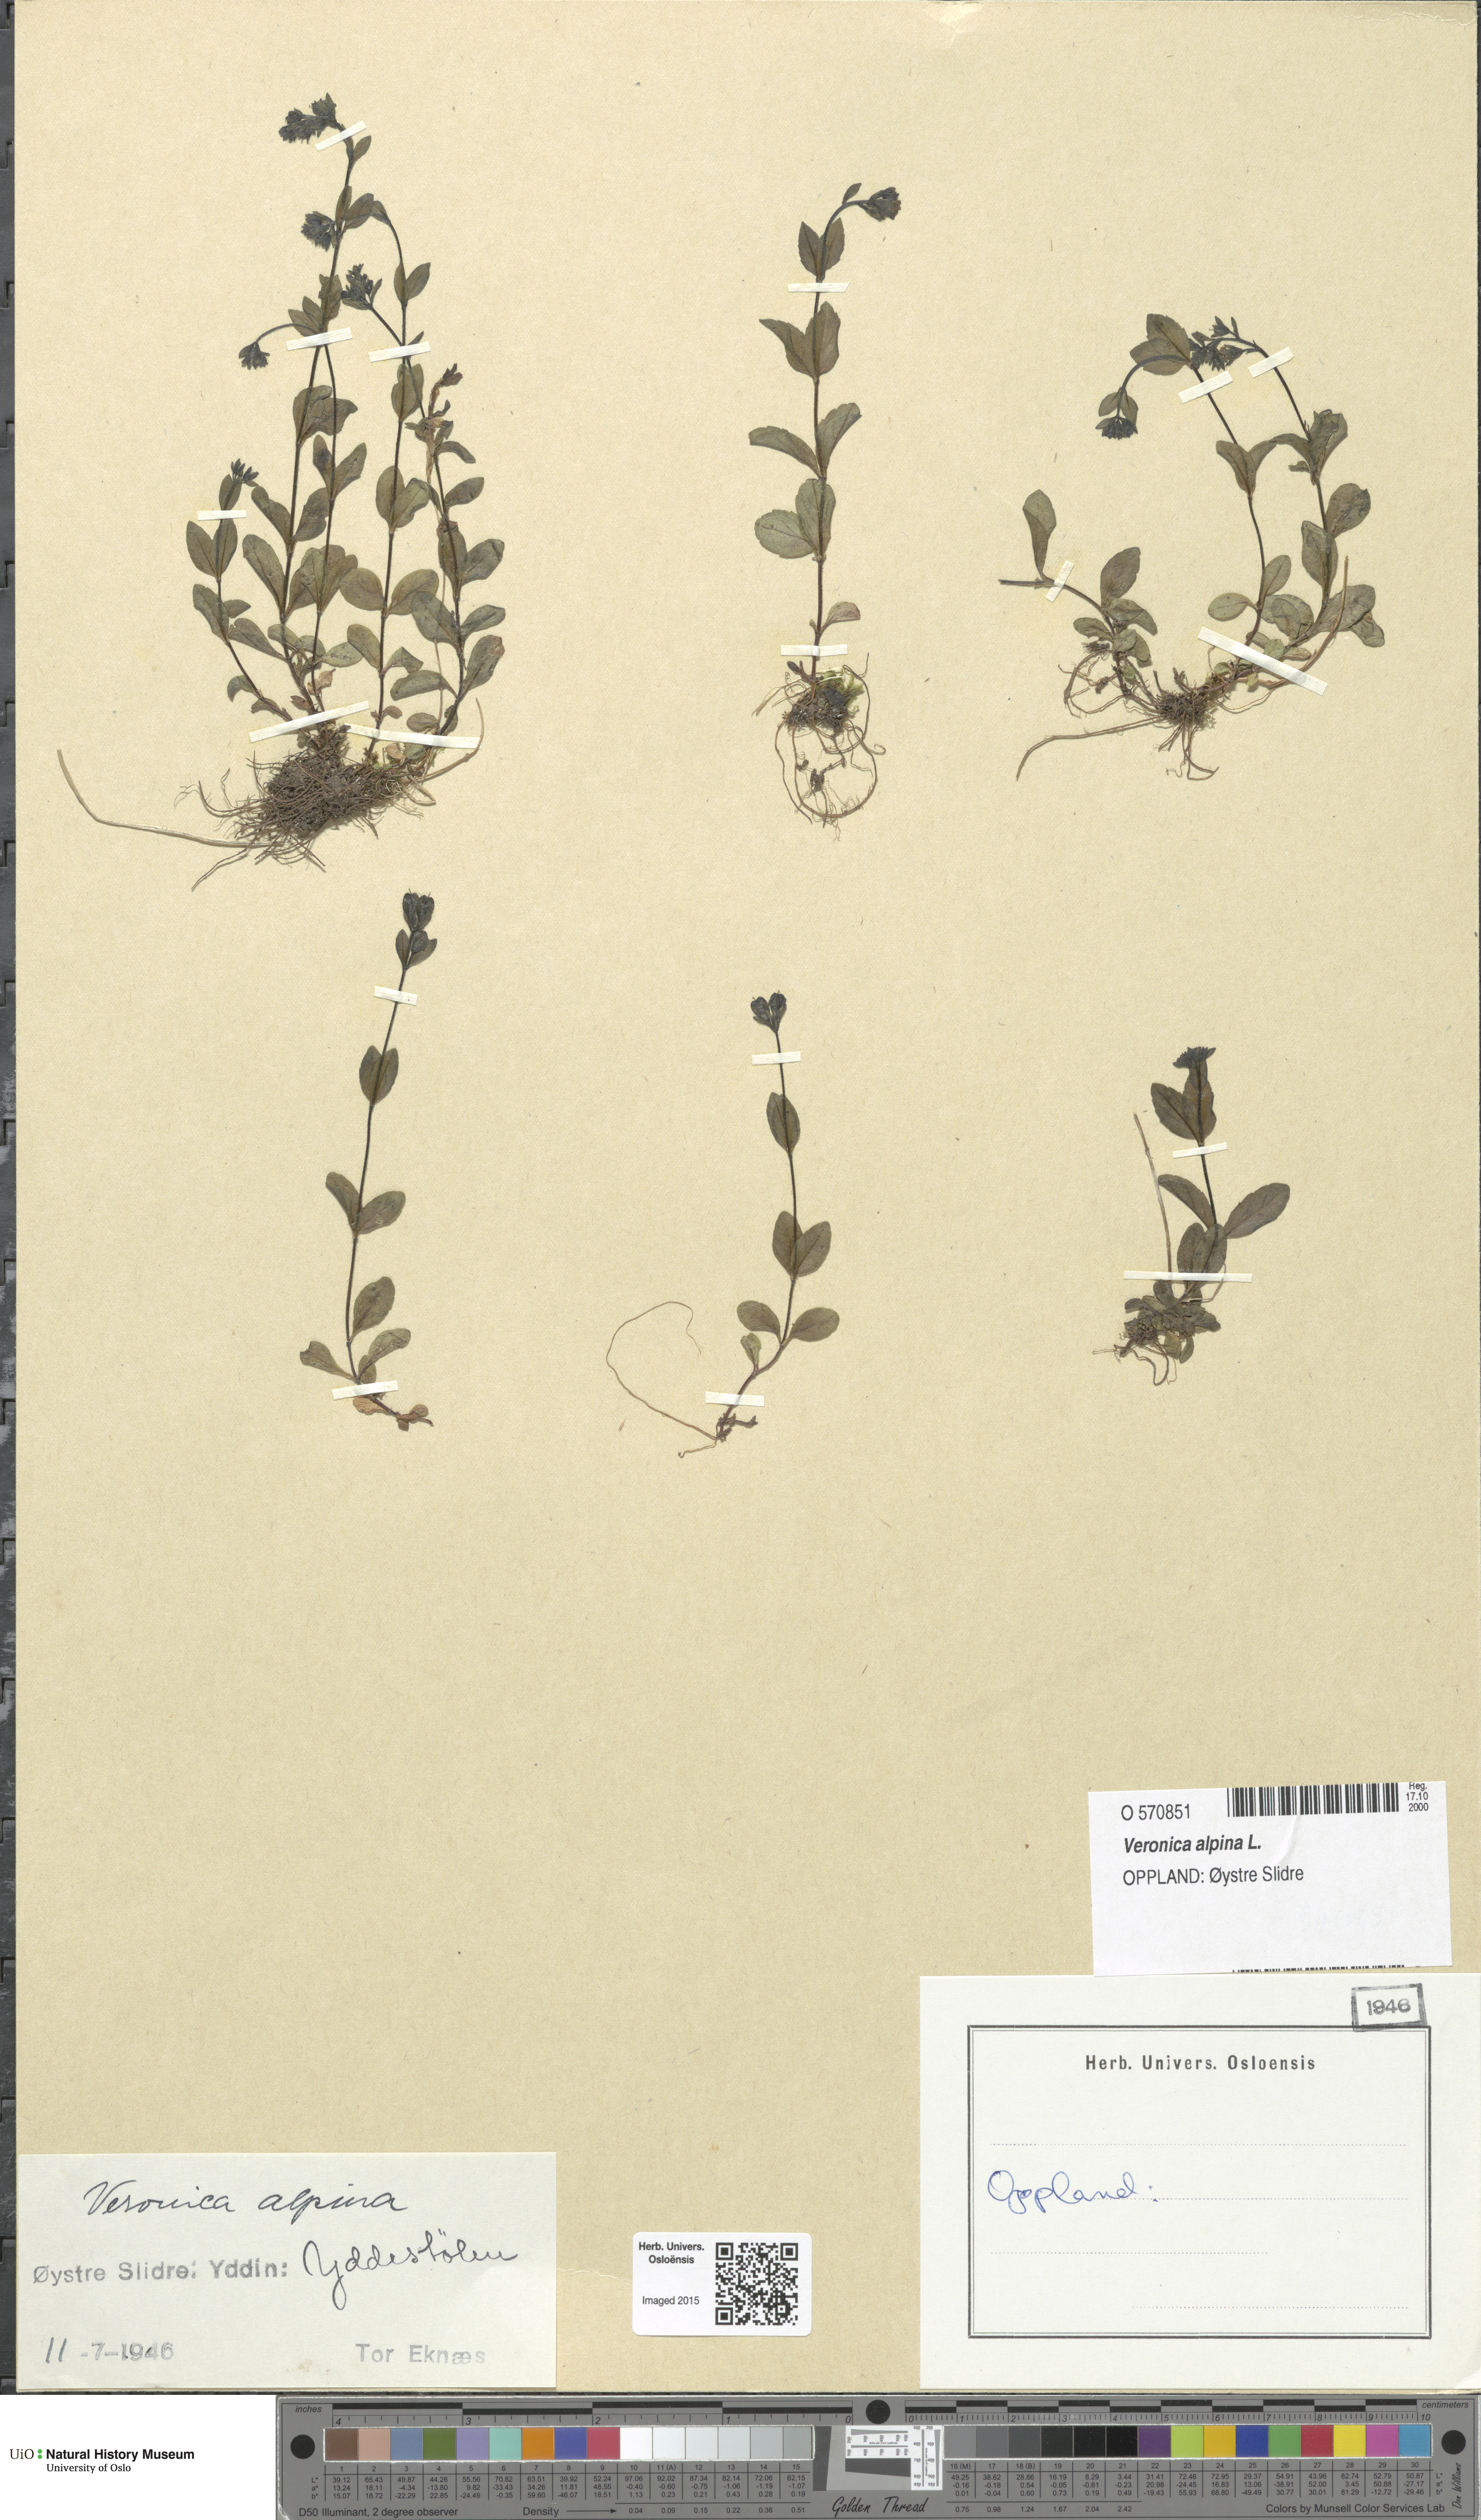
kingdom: Plantae
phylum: Tracheophyta
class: Magnoliopsida
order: Lamiales
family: Plantaginaceae
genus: Veronica
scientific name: Veronica alpina
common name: Alpine speedwell
